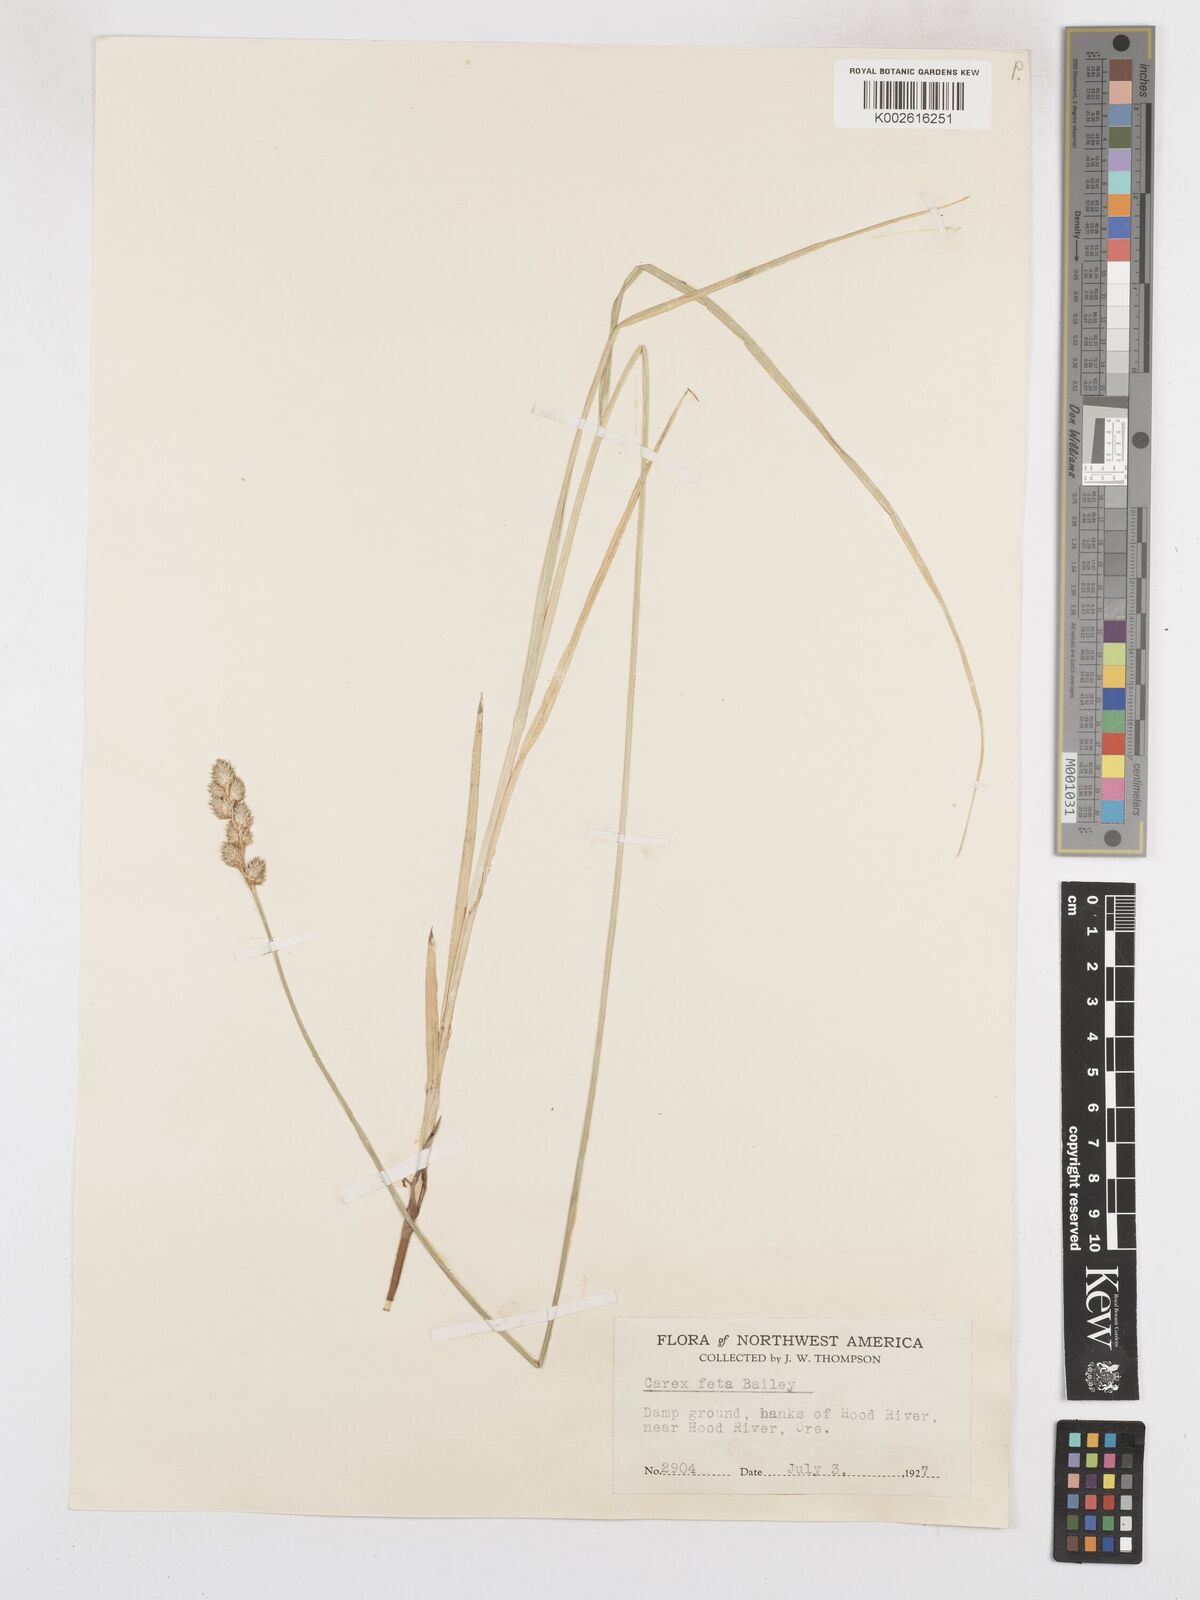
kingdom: Plantae
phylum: Tracheophyta
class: Liliopsida
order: Poales
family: Cyperaceae
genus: Carex
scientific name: Carex feta
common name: Green-sheathed sedge
